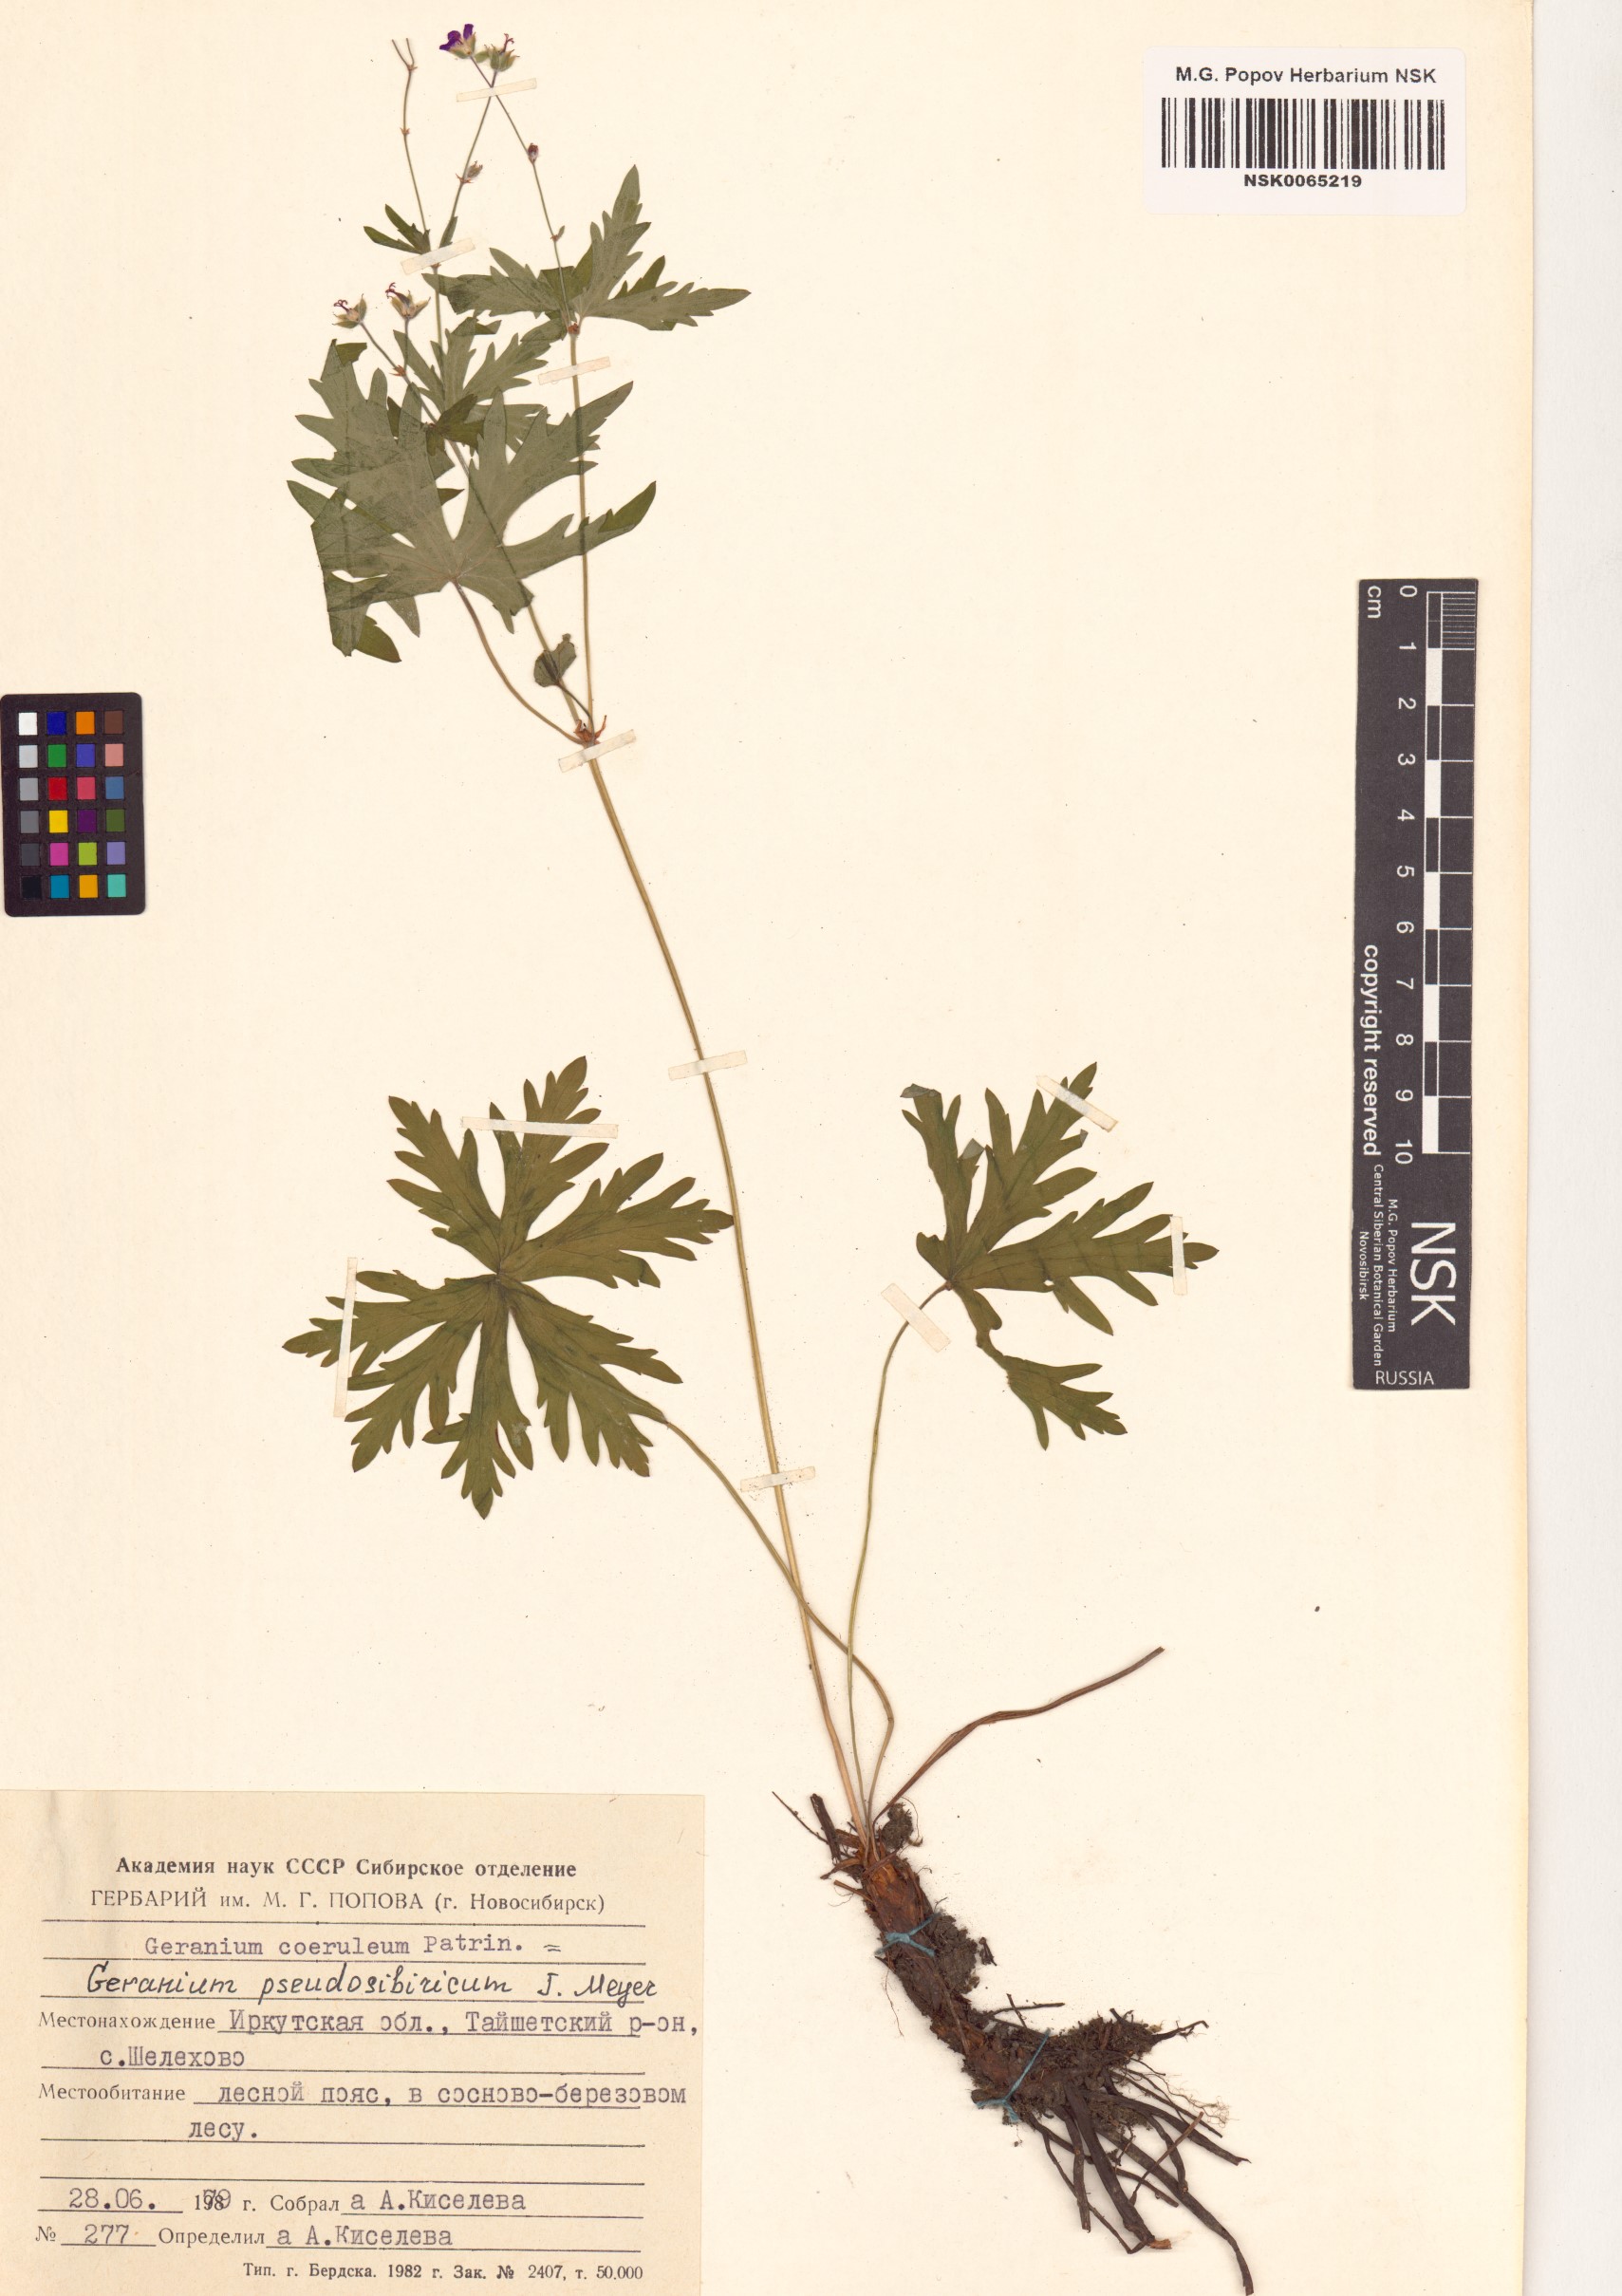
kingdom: Plantae
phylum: Tracheophyta
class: Magnoliopsida
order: Geraniales
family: Geraniaceae
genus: Geranium
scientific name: Geranium pseudosibiricum
